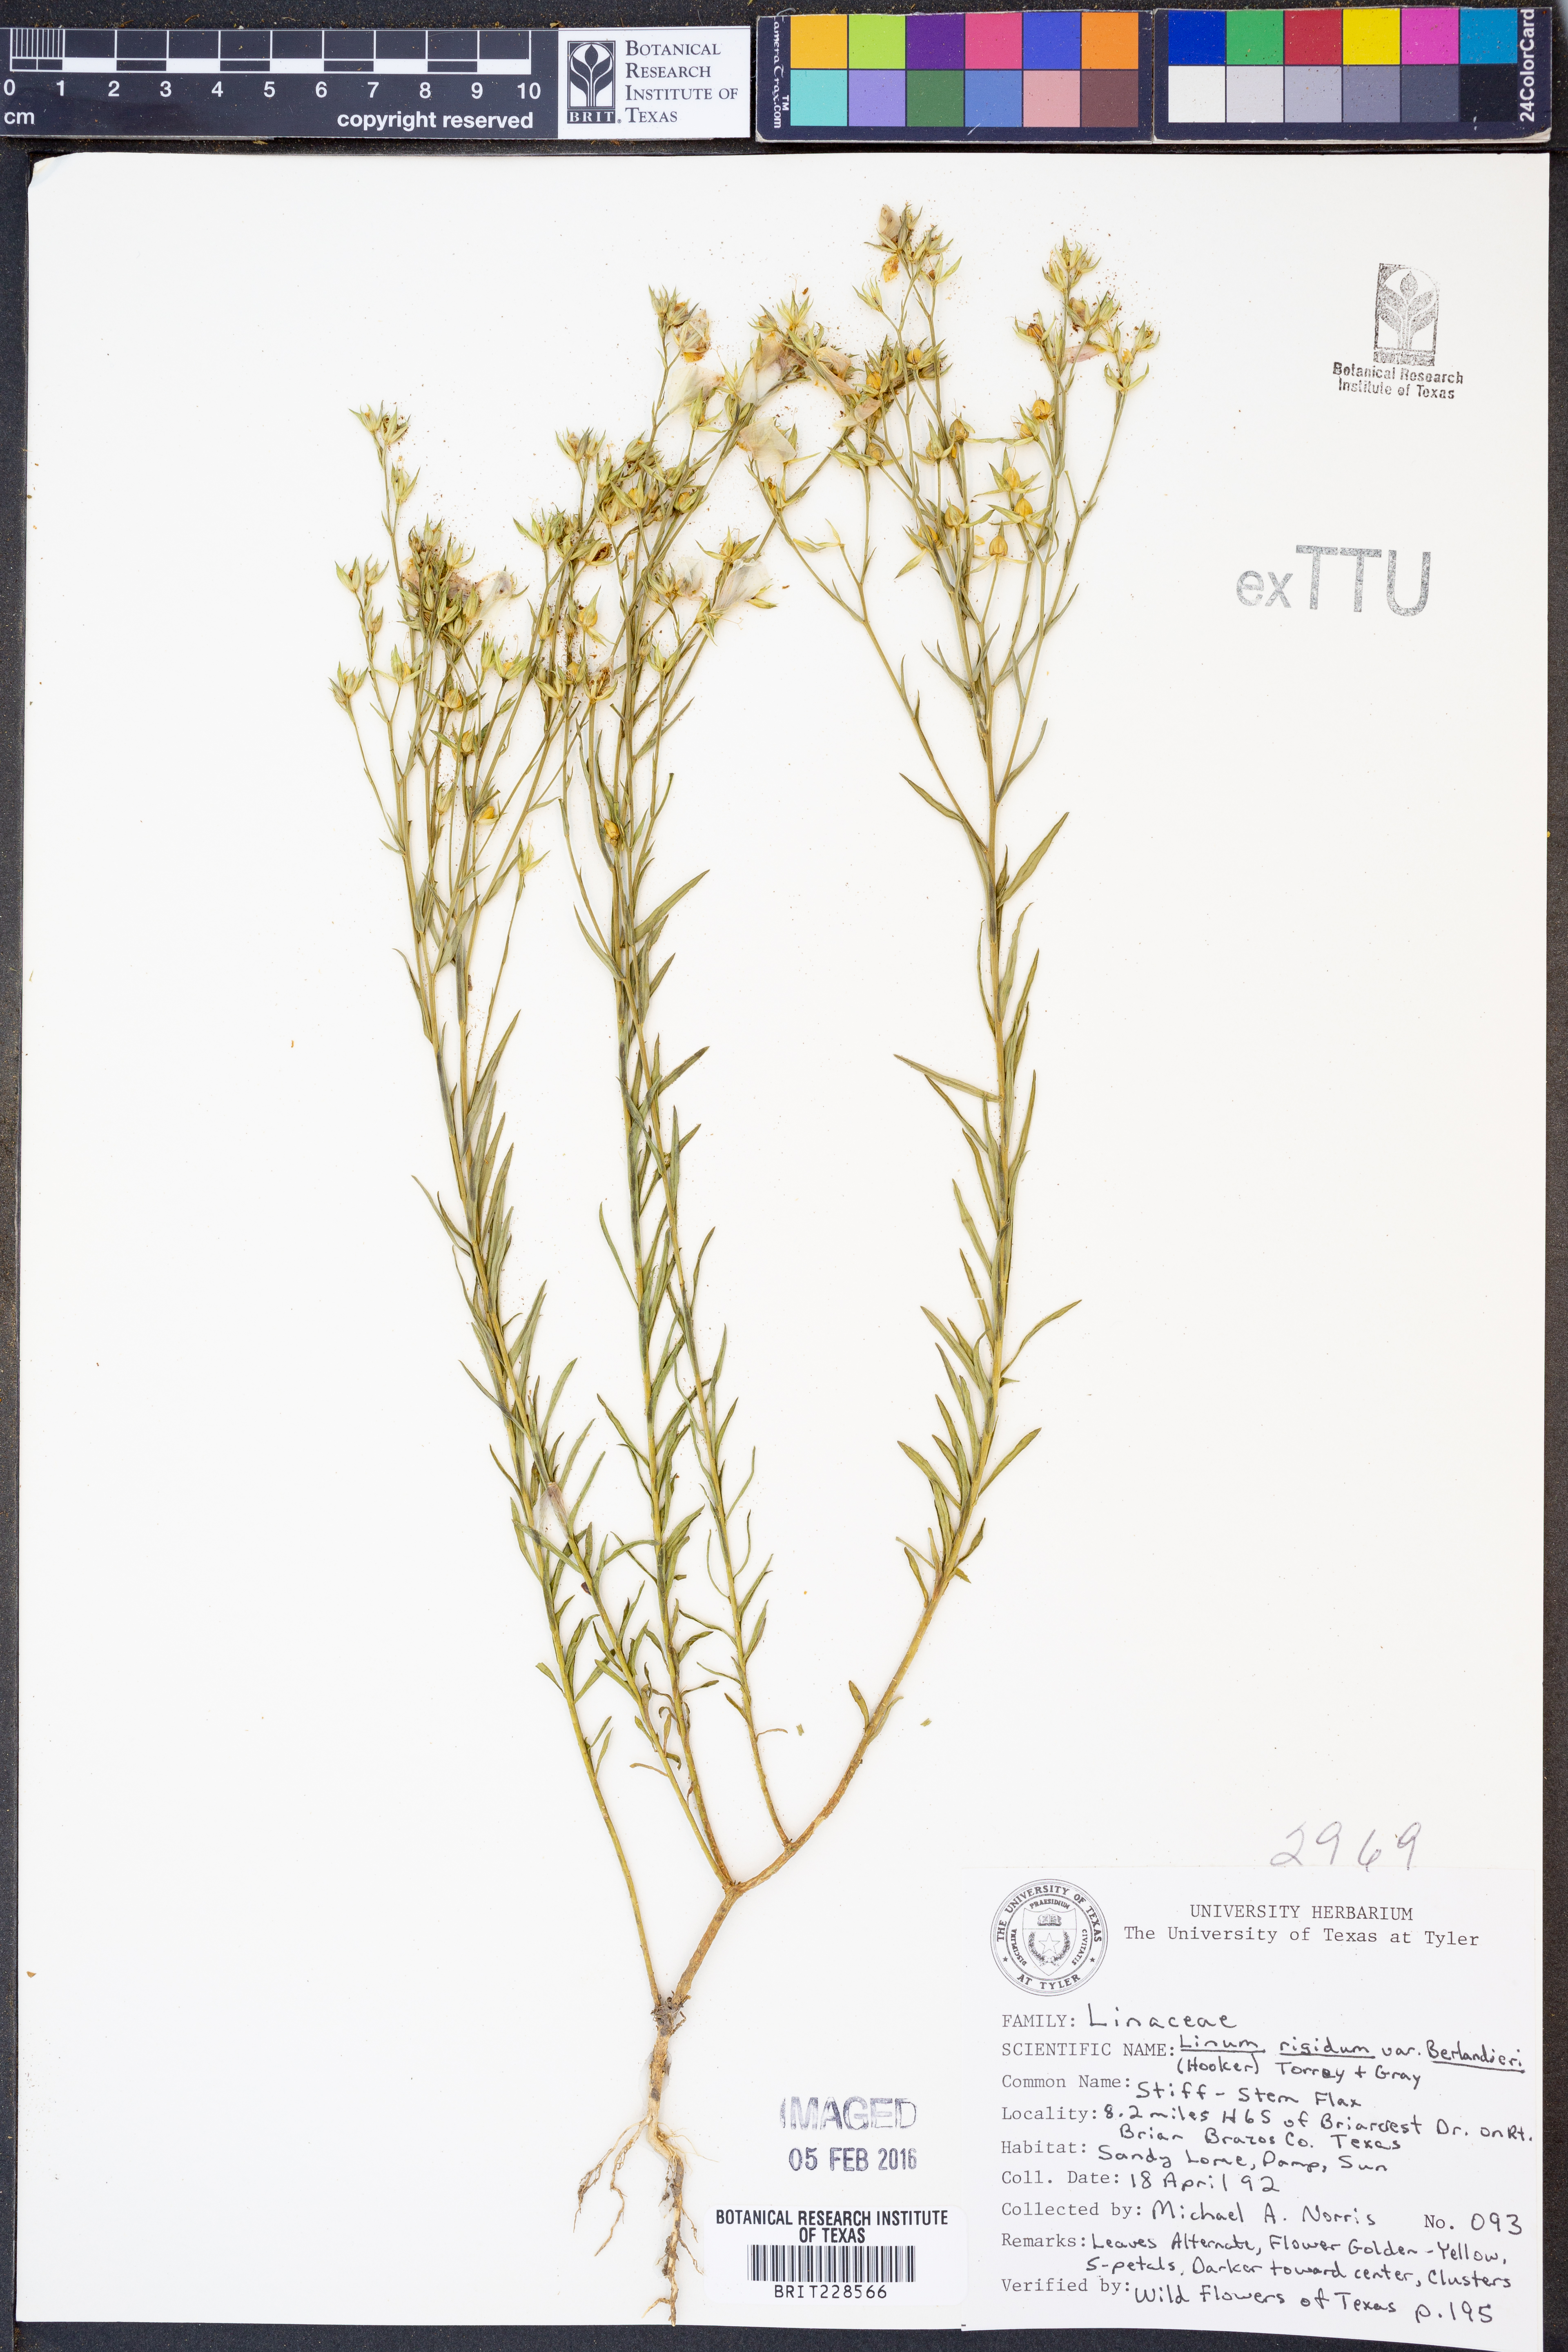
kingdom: Plantae
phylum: Tracheophyta
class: Magnoliopsida
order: Malpighiales
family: Linaceae
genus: Linum
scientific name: Linum berlandieri
